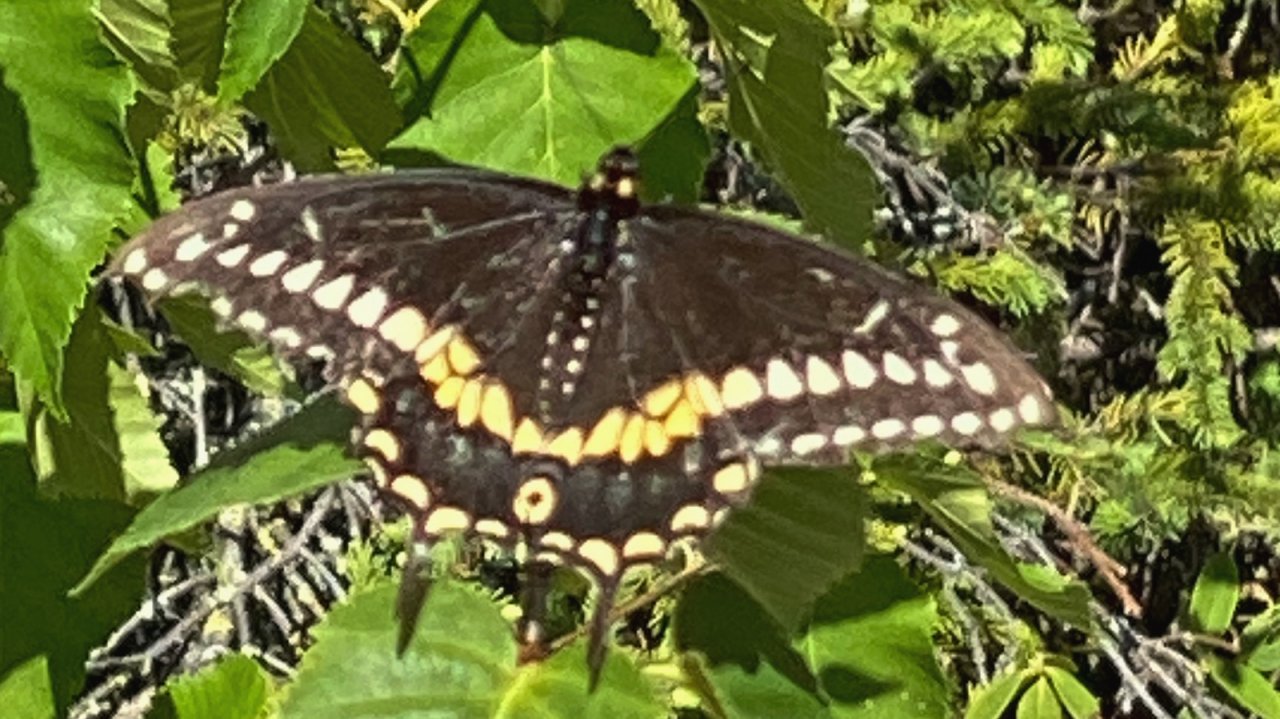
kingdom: Animalia
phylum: Arthropoda
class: Insecta
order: Lepidoptera
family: Papilionidae
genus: Papilio
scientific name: Papilio polyxenes
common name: Black Swallowtail
